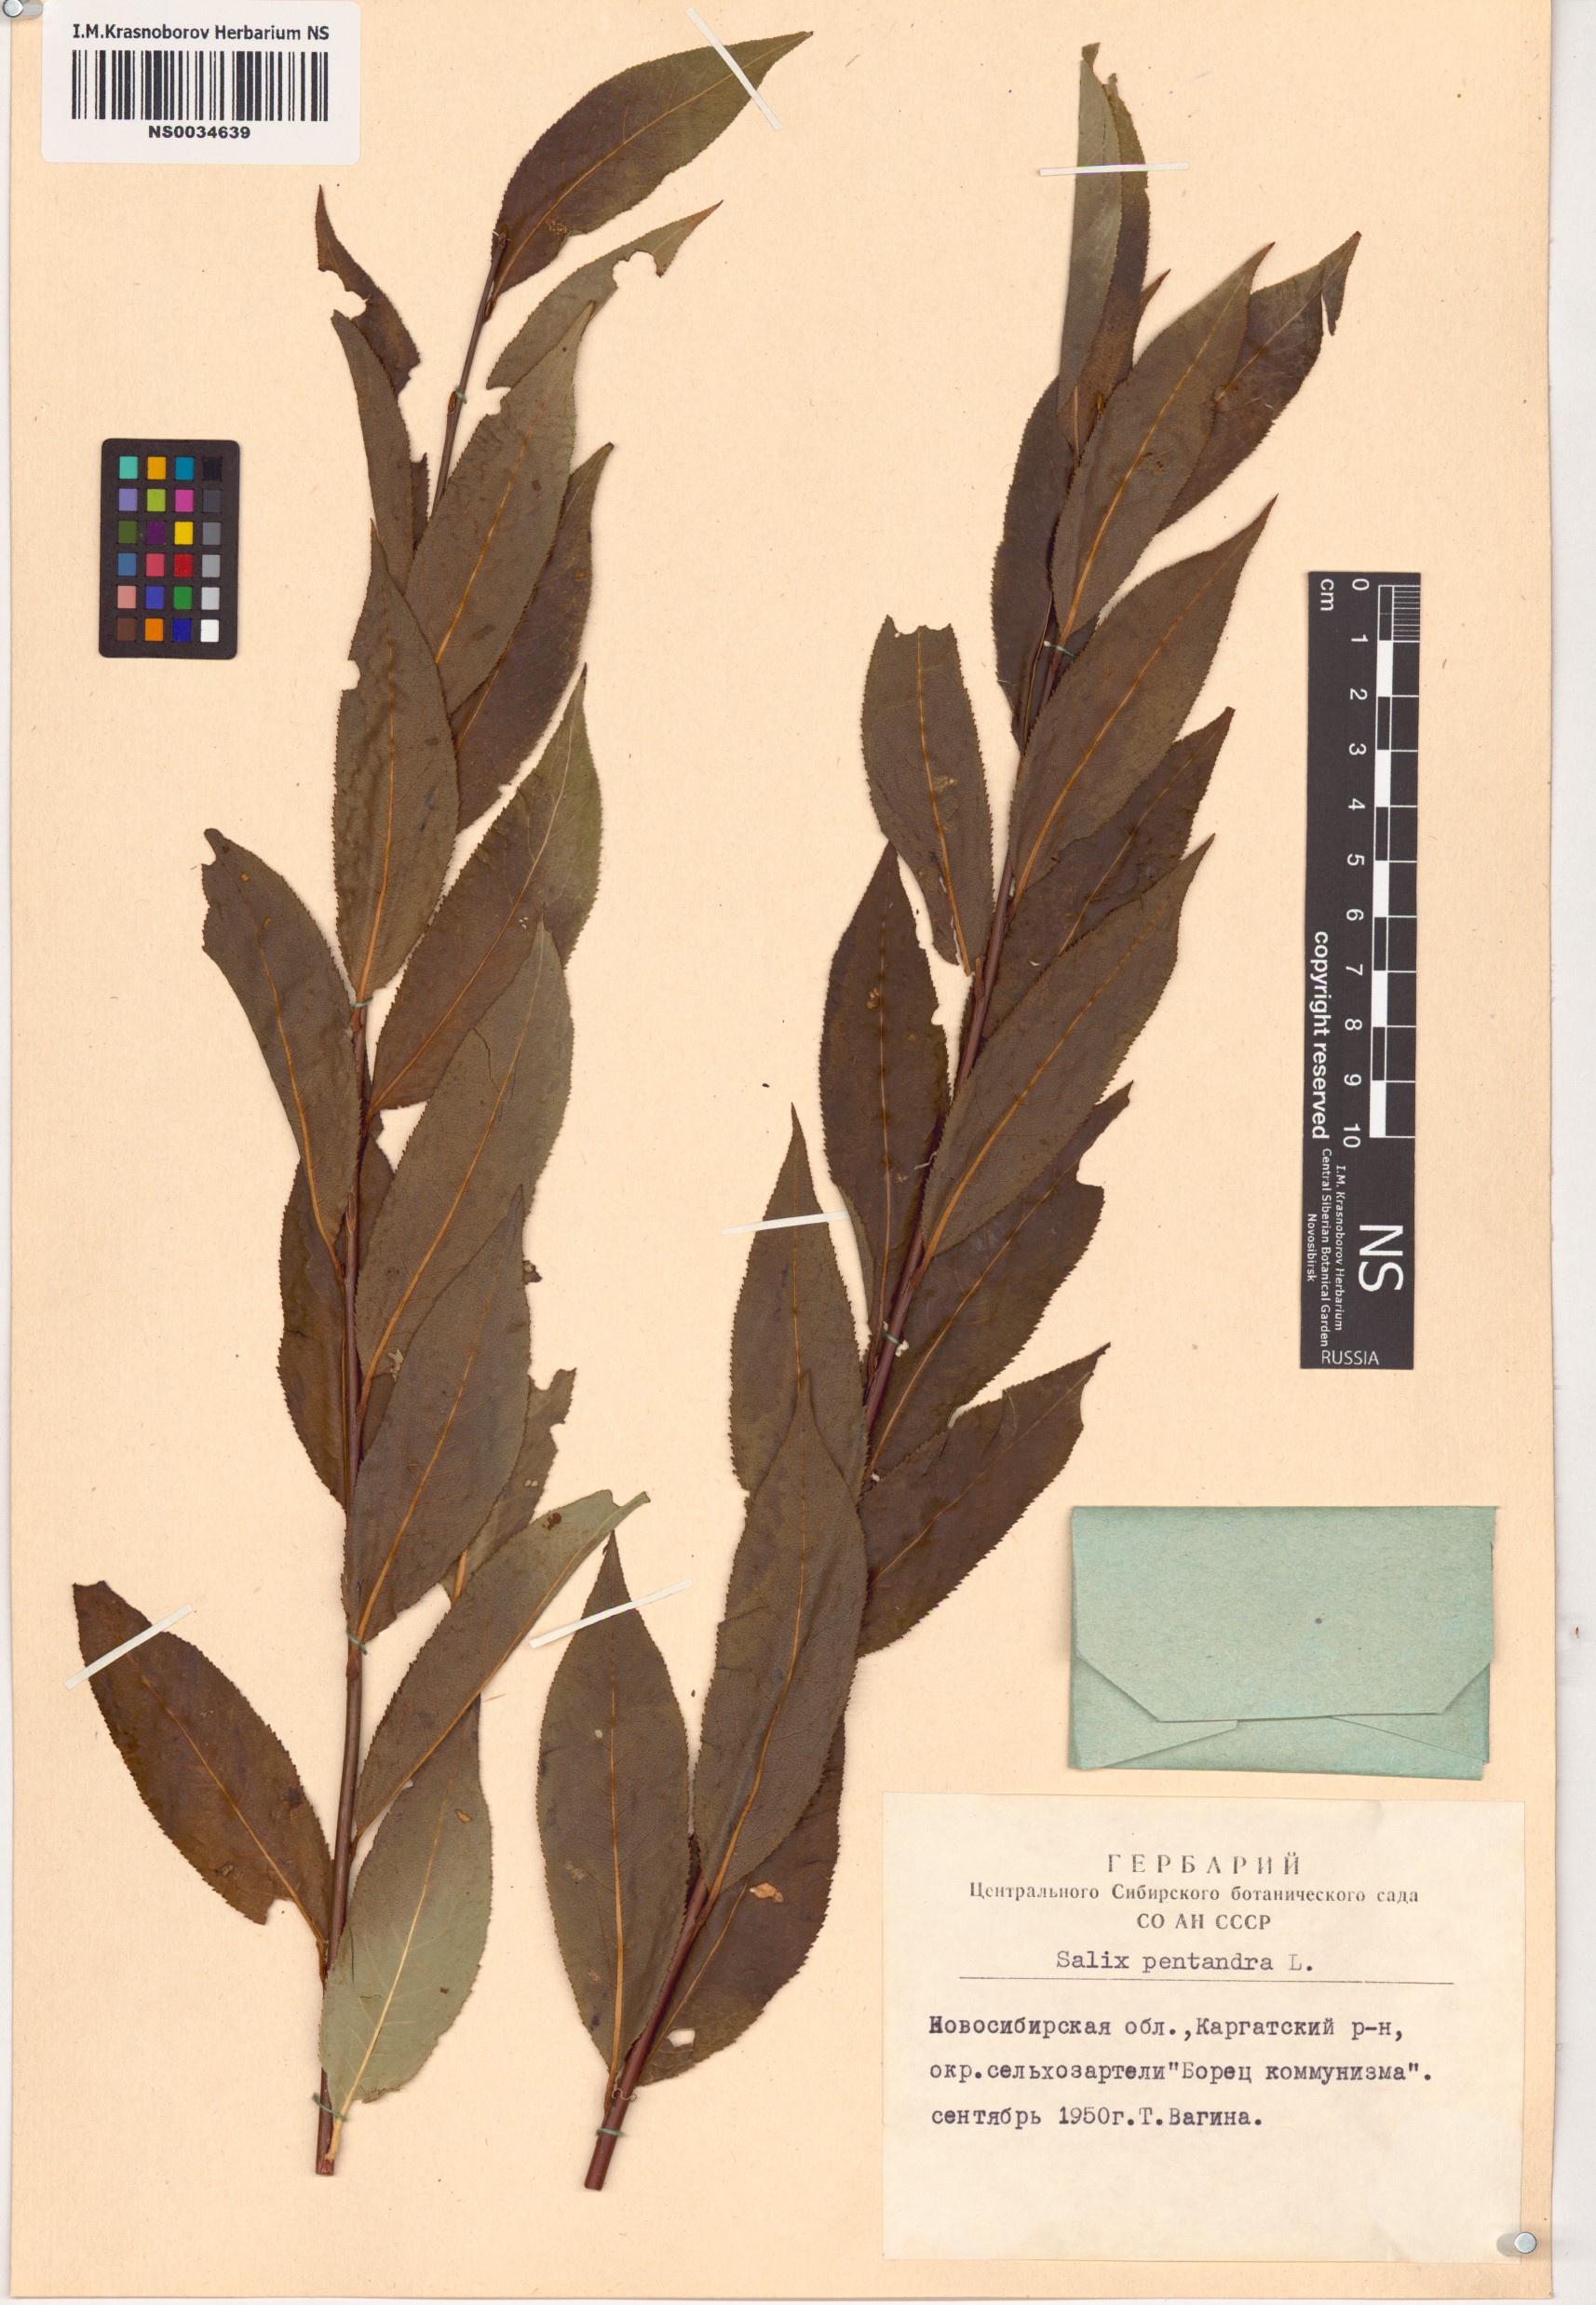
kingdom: Plantae
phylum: Tracheophyta
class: Magnoliopsida
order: Malpighiales
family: Salicaceae
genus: Salix
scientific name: Salix pentandra
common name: Bay willow
